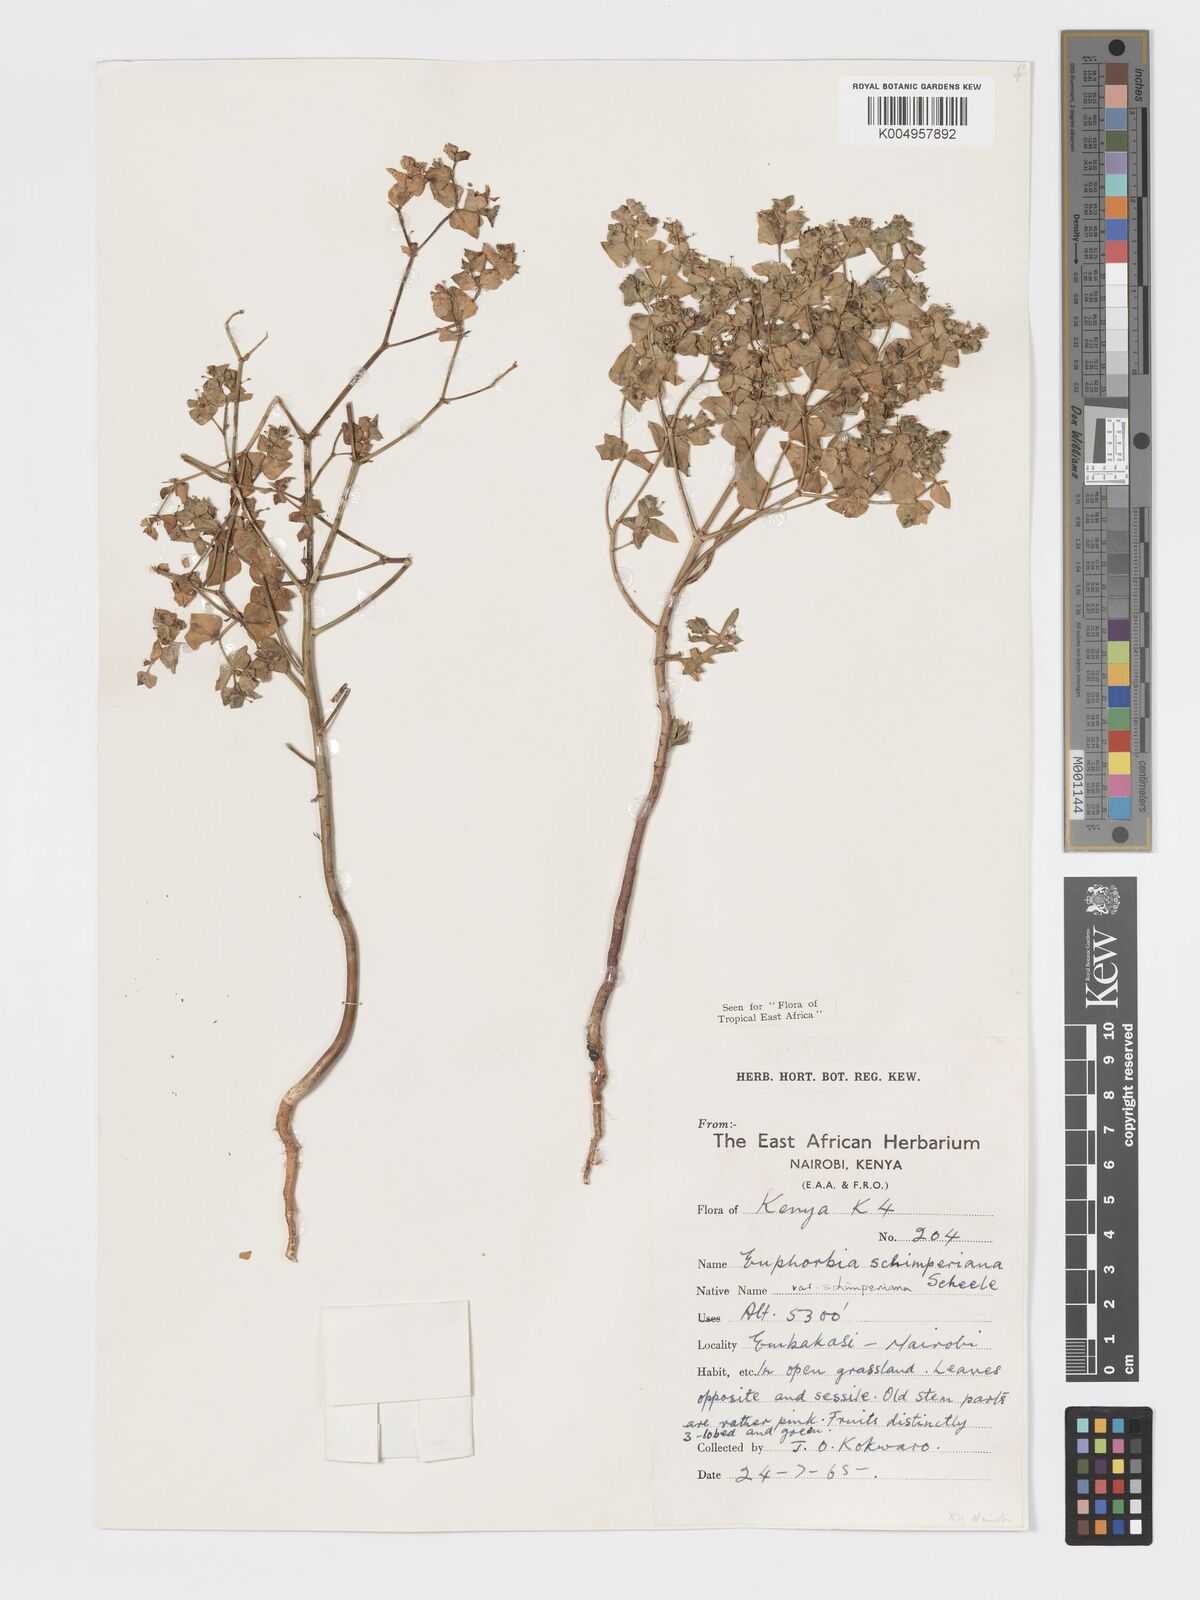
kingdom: Plantae
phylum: Tracheophyta
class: Magnoliopsida
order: Malpighiales
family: Euphorbiaceae
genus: Euphorbia
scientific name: Euphorbia schimperiana
